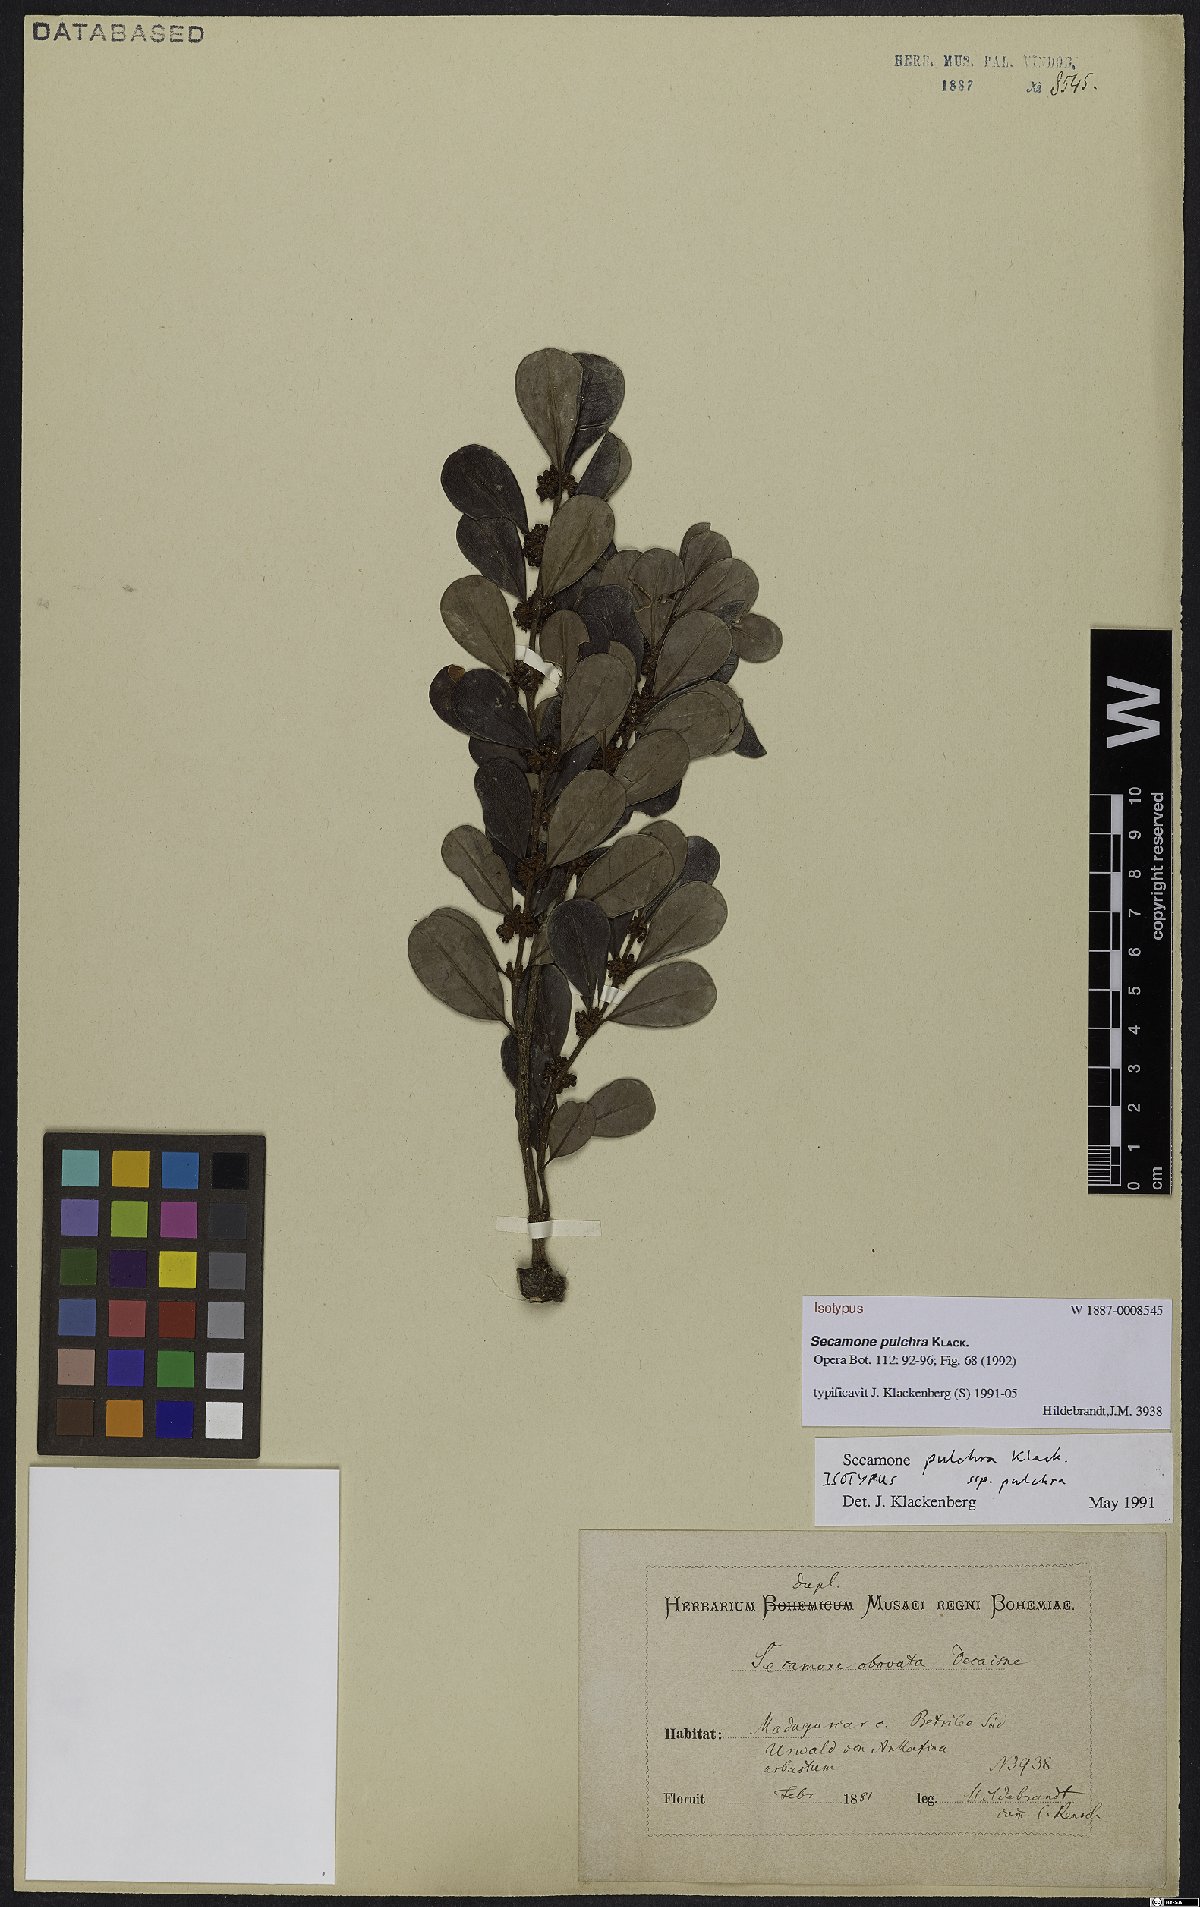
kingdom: Plantae
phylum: Tracheophyta
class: Magnoliopsida
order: Gentianales
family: Apocynaceae
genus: Secamone
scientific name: Secamone pulchra
